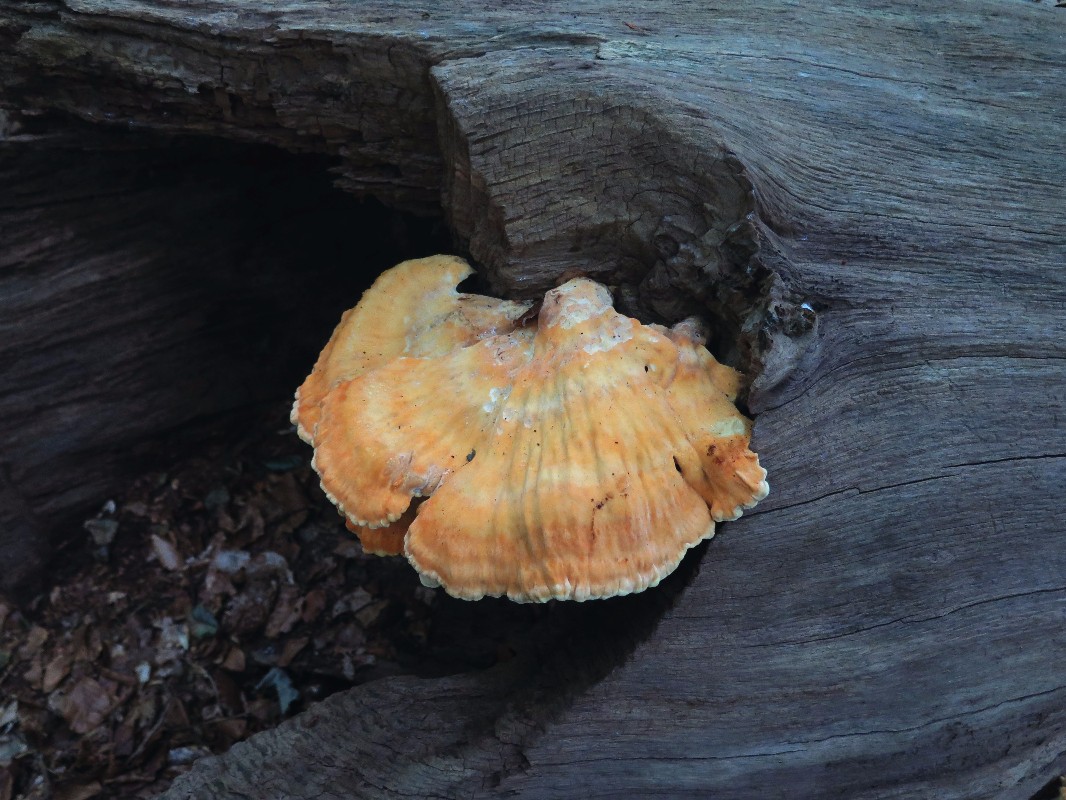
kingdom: Fungi
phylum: Basidiomycota
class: Agaricomycetes
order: Polyporales
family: Laetiporaceae
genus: Laetiporus
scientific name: Laetiporus sulphureus
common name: svovlporesvamp
